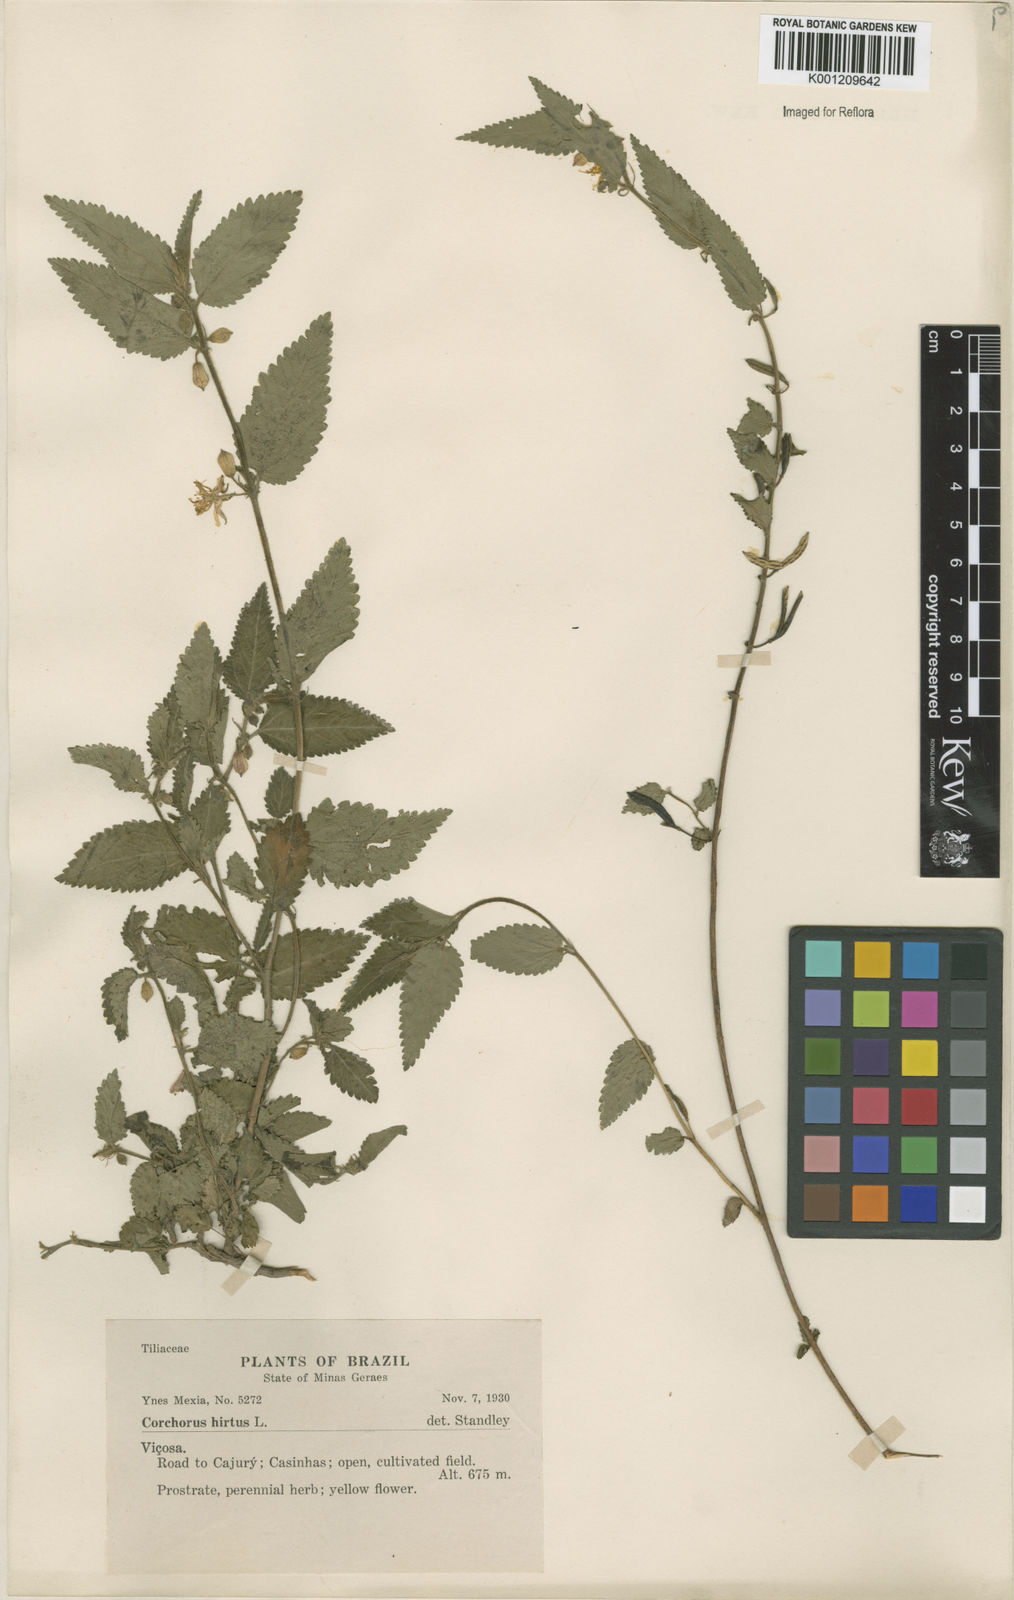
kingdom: Plantae
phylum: Tracheophyta
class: Magnoliopsida
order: Malvales
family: Malvaceae
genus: Corchorus
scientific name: Corchorus hirtus
